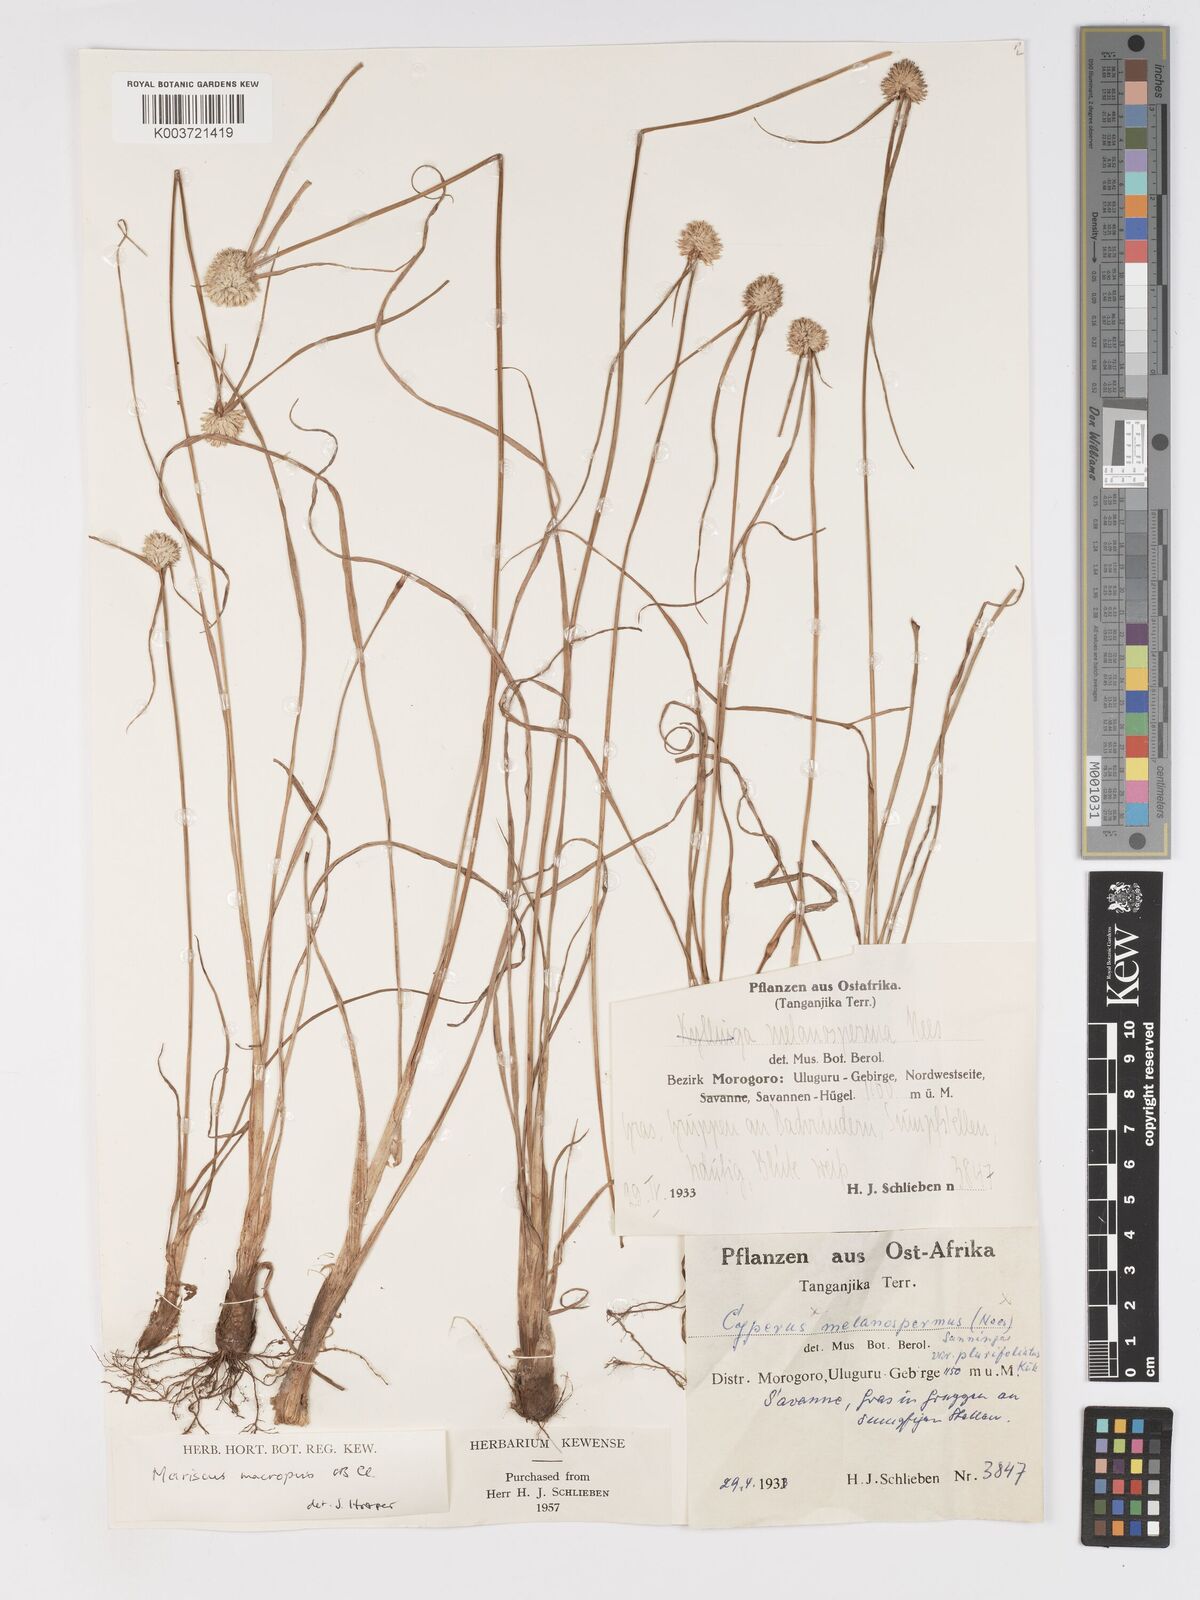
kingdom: Plantae
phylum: Tracheophyta
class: Liliopsida
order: Poales
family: Cyperaceae
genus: Cyperus
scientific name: Cyperus mollipes
